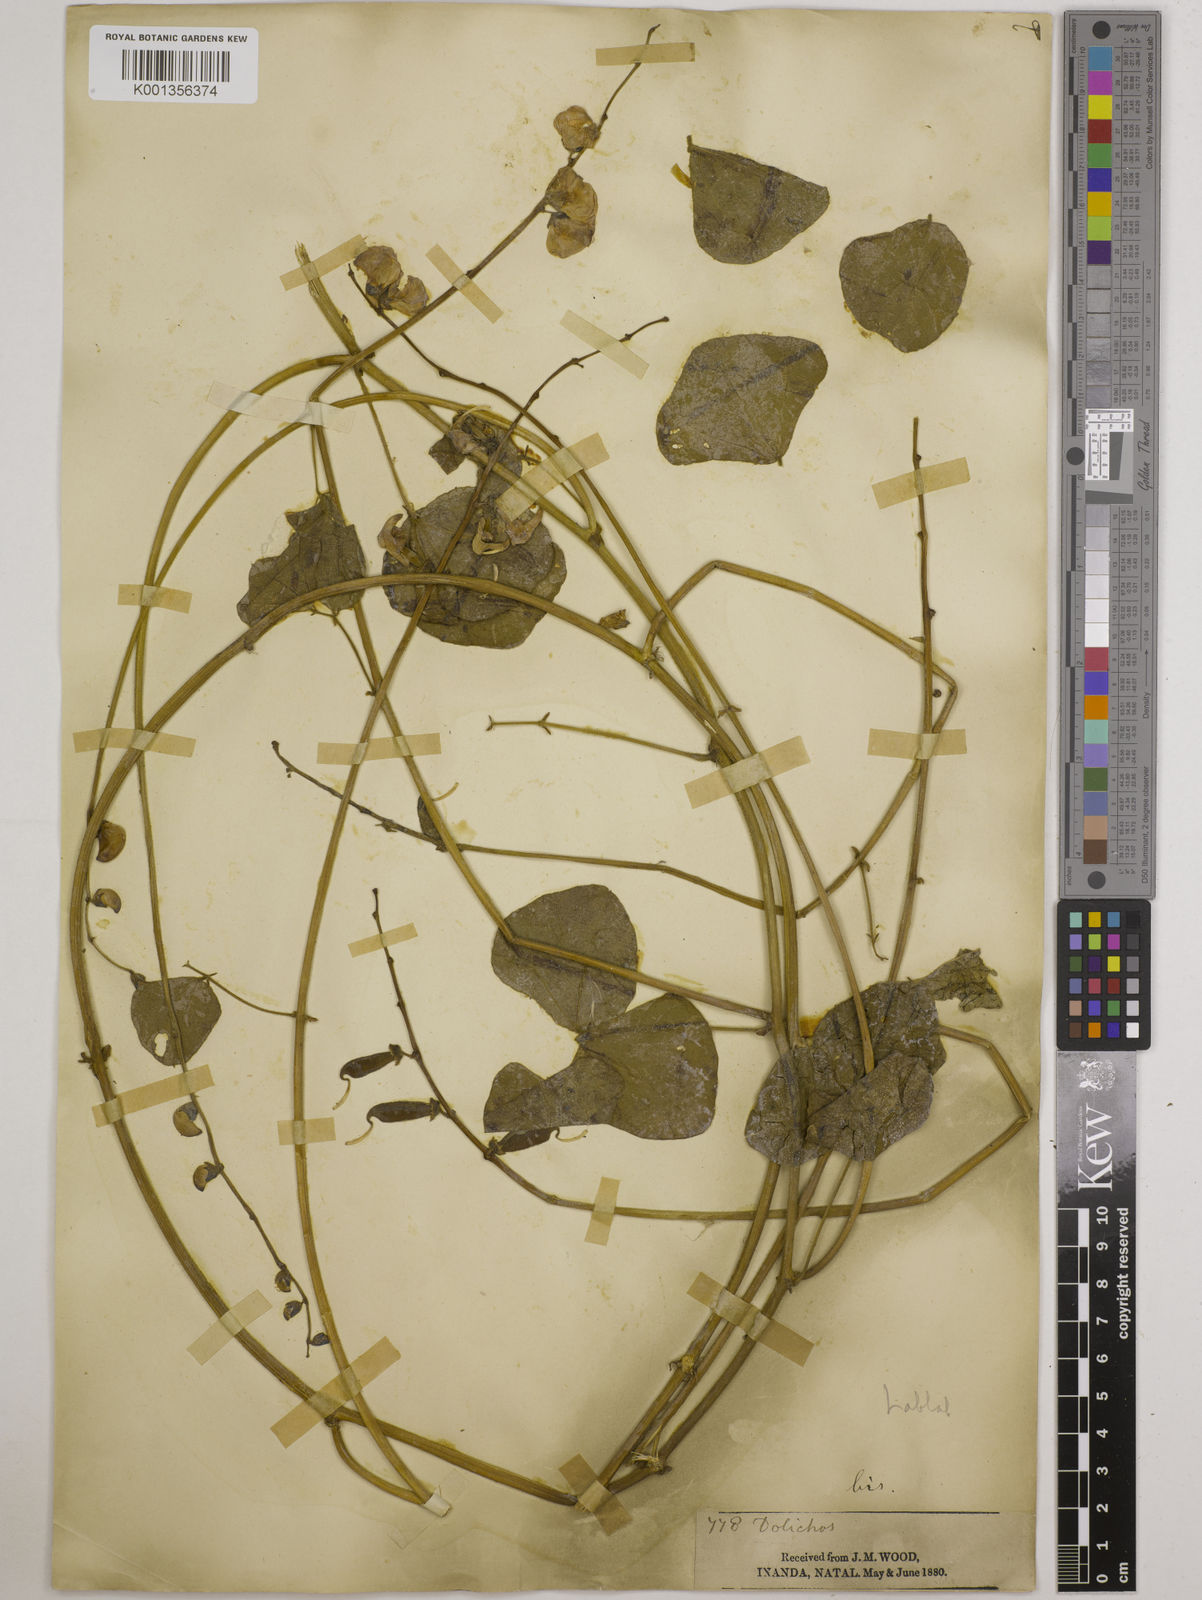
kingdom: Plantae
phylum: Tracheophyta
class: Magnoliopsida
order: Fabales
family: Fabaceae
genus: Lablab
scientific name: Lablab purpureus
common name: Lablab-bean
